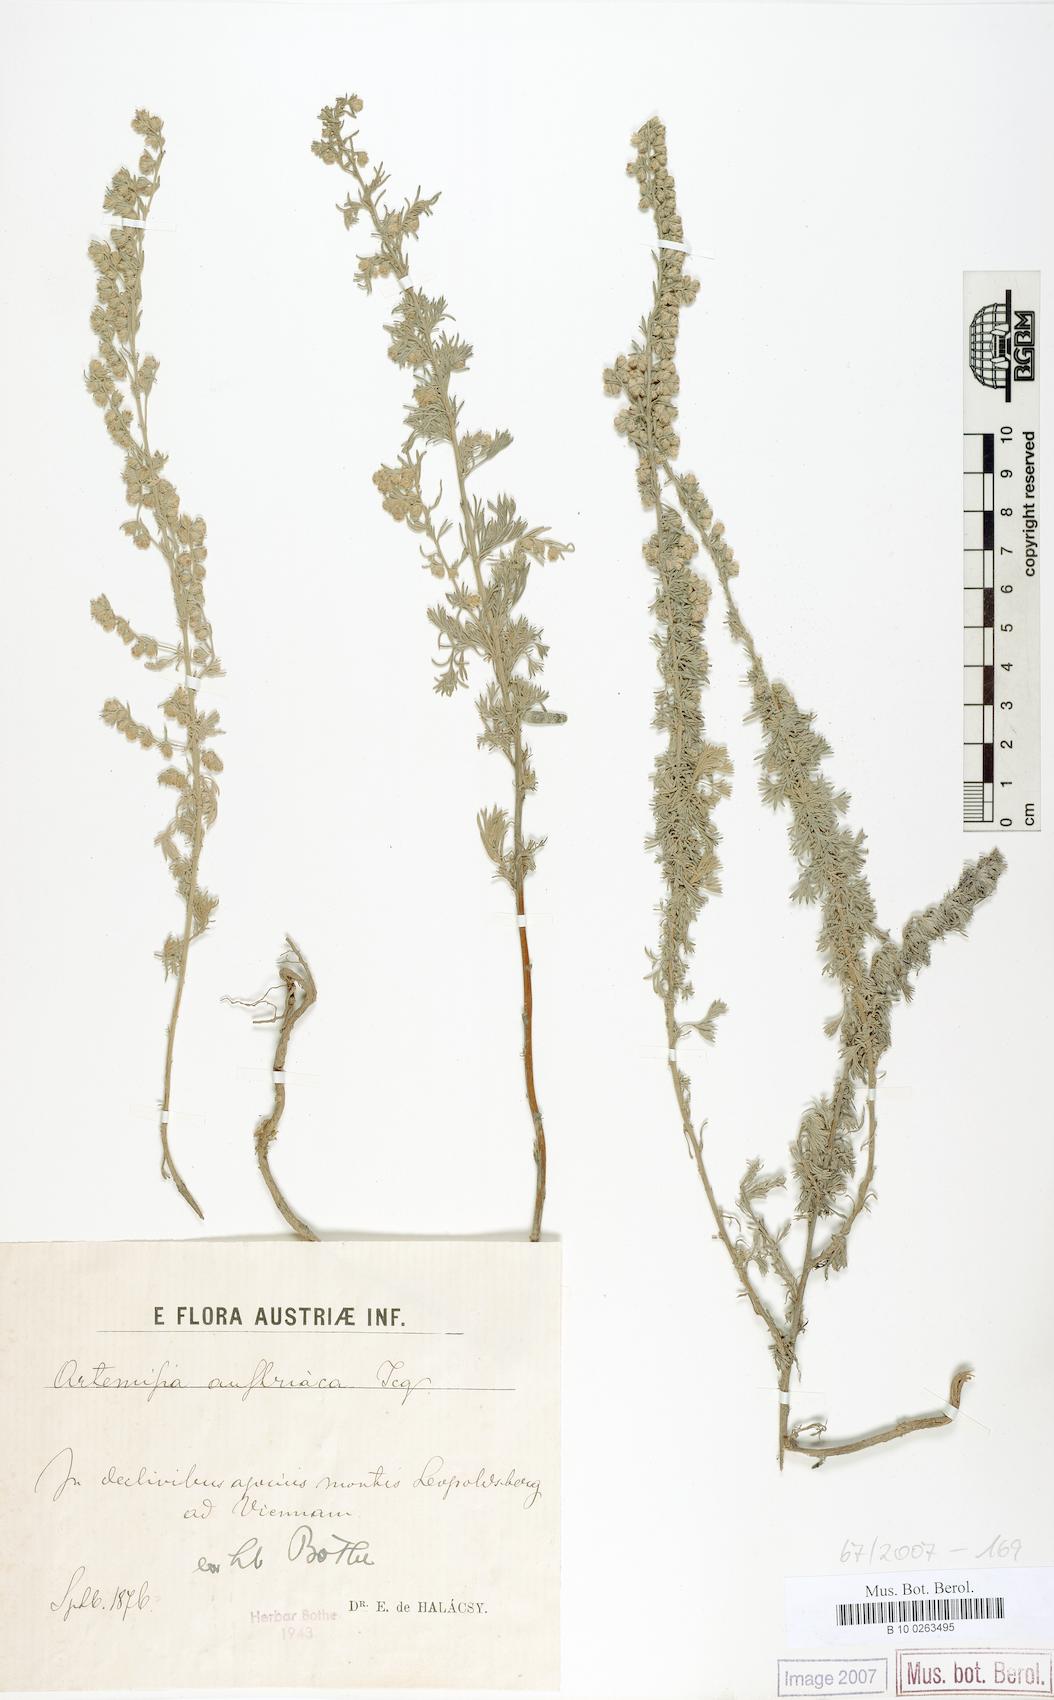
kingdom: Plantae
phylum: Tracheophyta
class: Magnoliopsida
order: Asterales
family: Asteraceae
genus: Artemisia
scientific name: Artemisia austriaca
